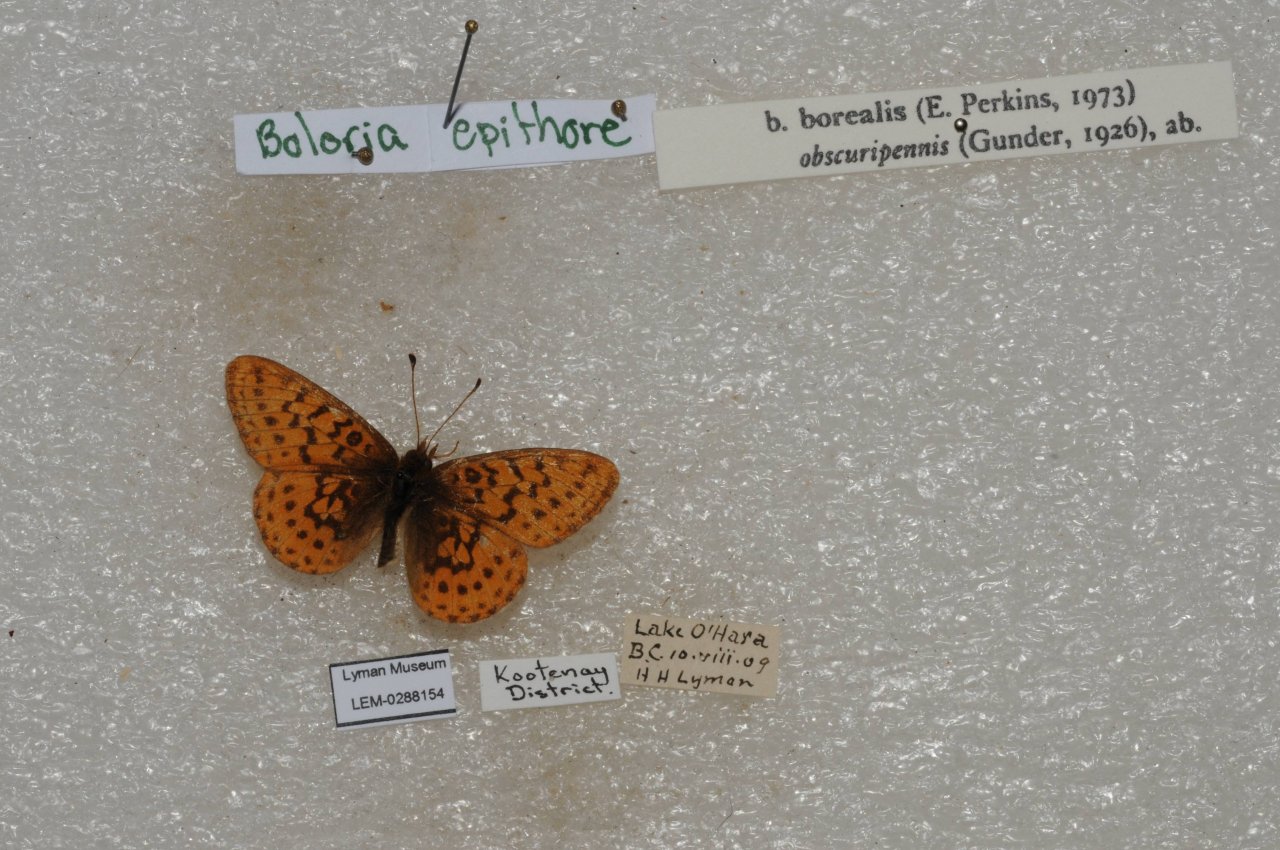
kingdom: Animalia
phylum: Arthropoda
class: Insecta
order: Lepidoptera
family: Nymphalidae
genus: Boloria
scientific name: Boloria epithore
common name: Pacific Fritillary
